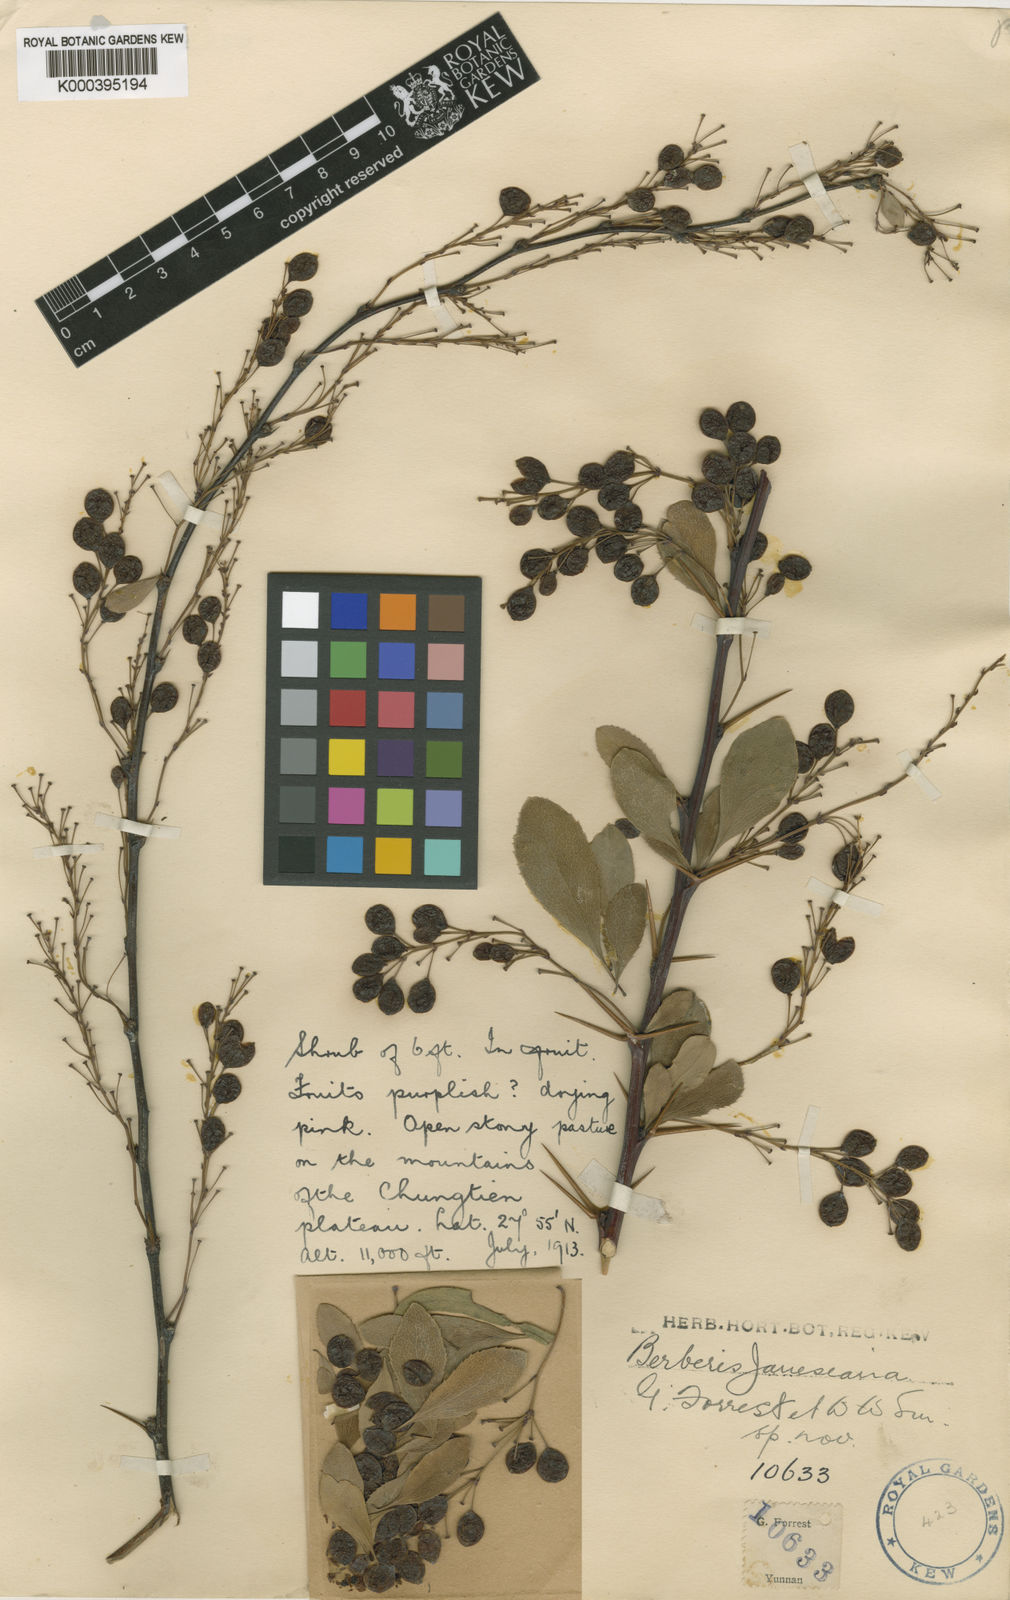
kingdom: Plantae
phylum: Tracheophyta
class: Magnoliopsida
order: Ranunculales
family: Berberidaceae
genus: Berberis
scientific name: Berberis jamesiana
